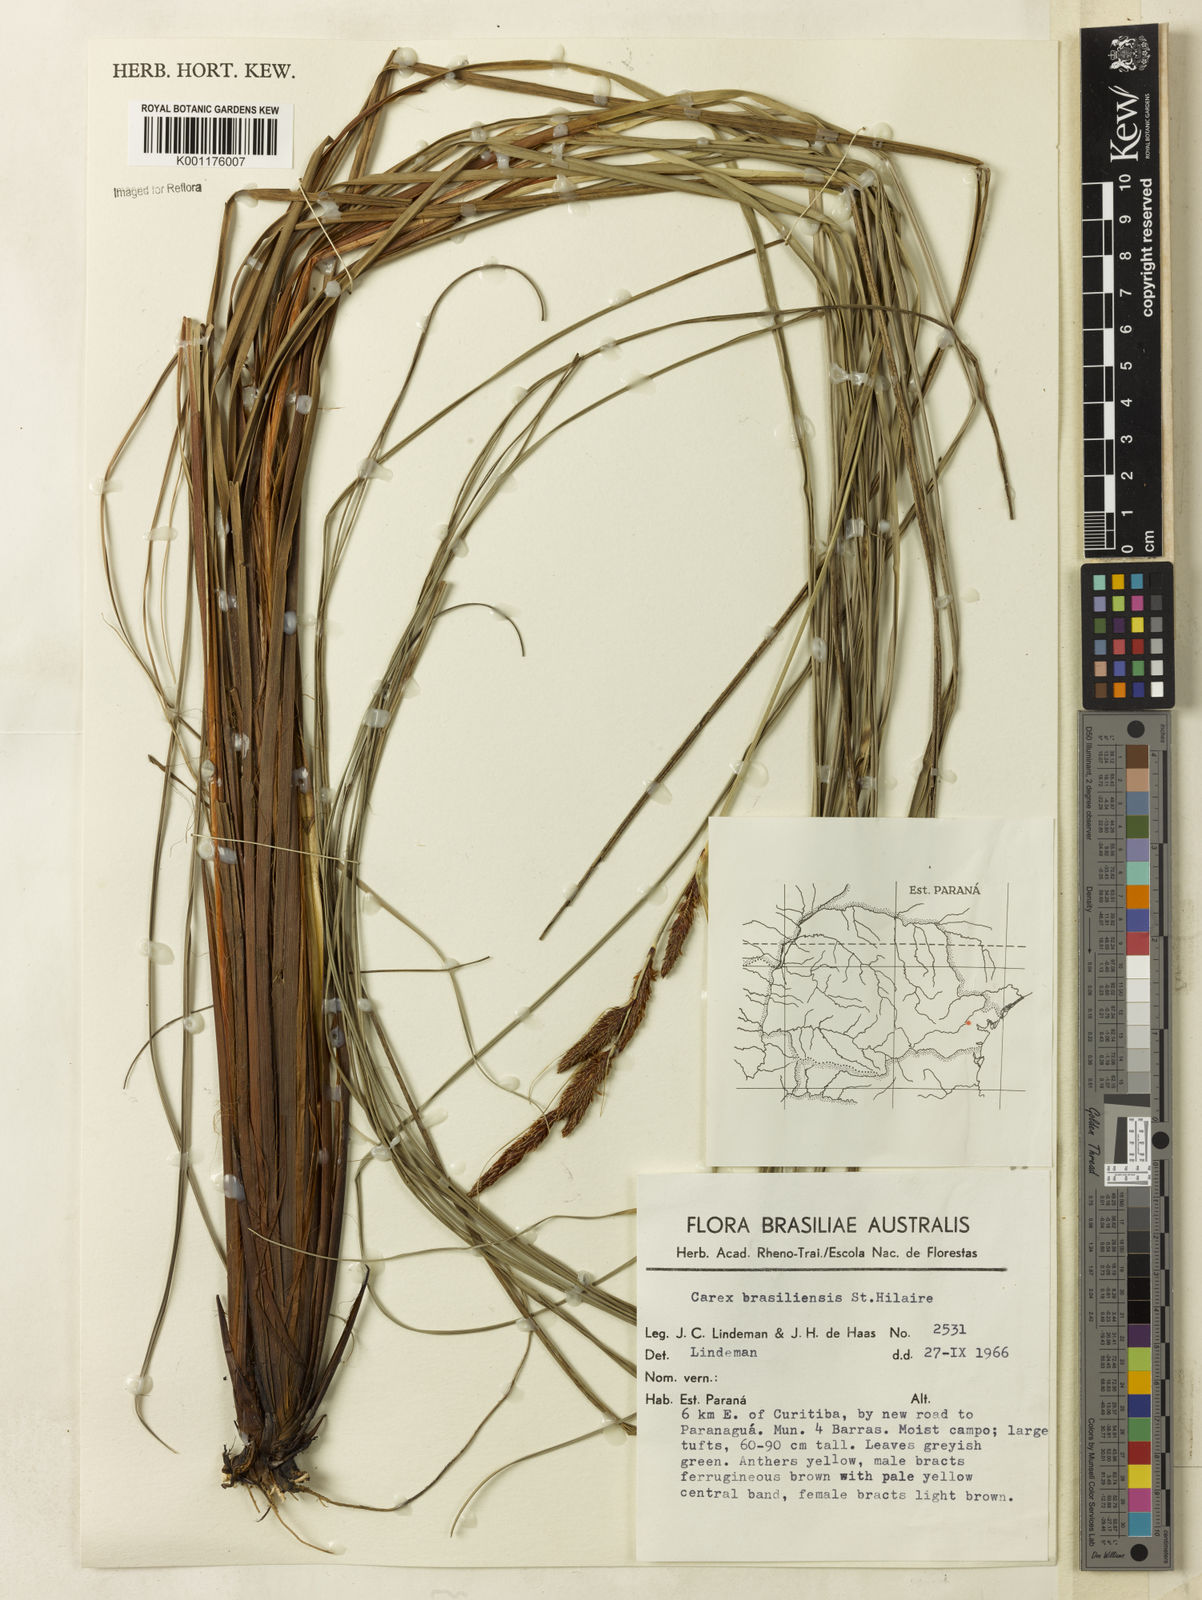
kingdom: Plantae
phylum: Tracheophyta
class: Liliopsida
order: Poales
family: Cyperaceae
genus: Carex
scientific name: Carex brasiliensis
